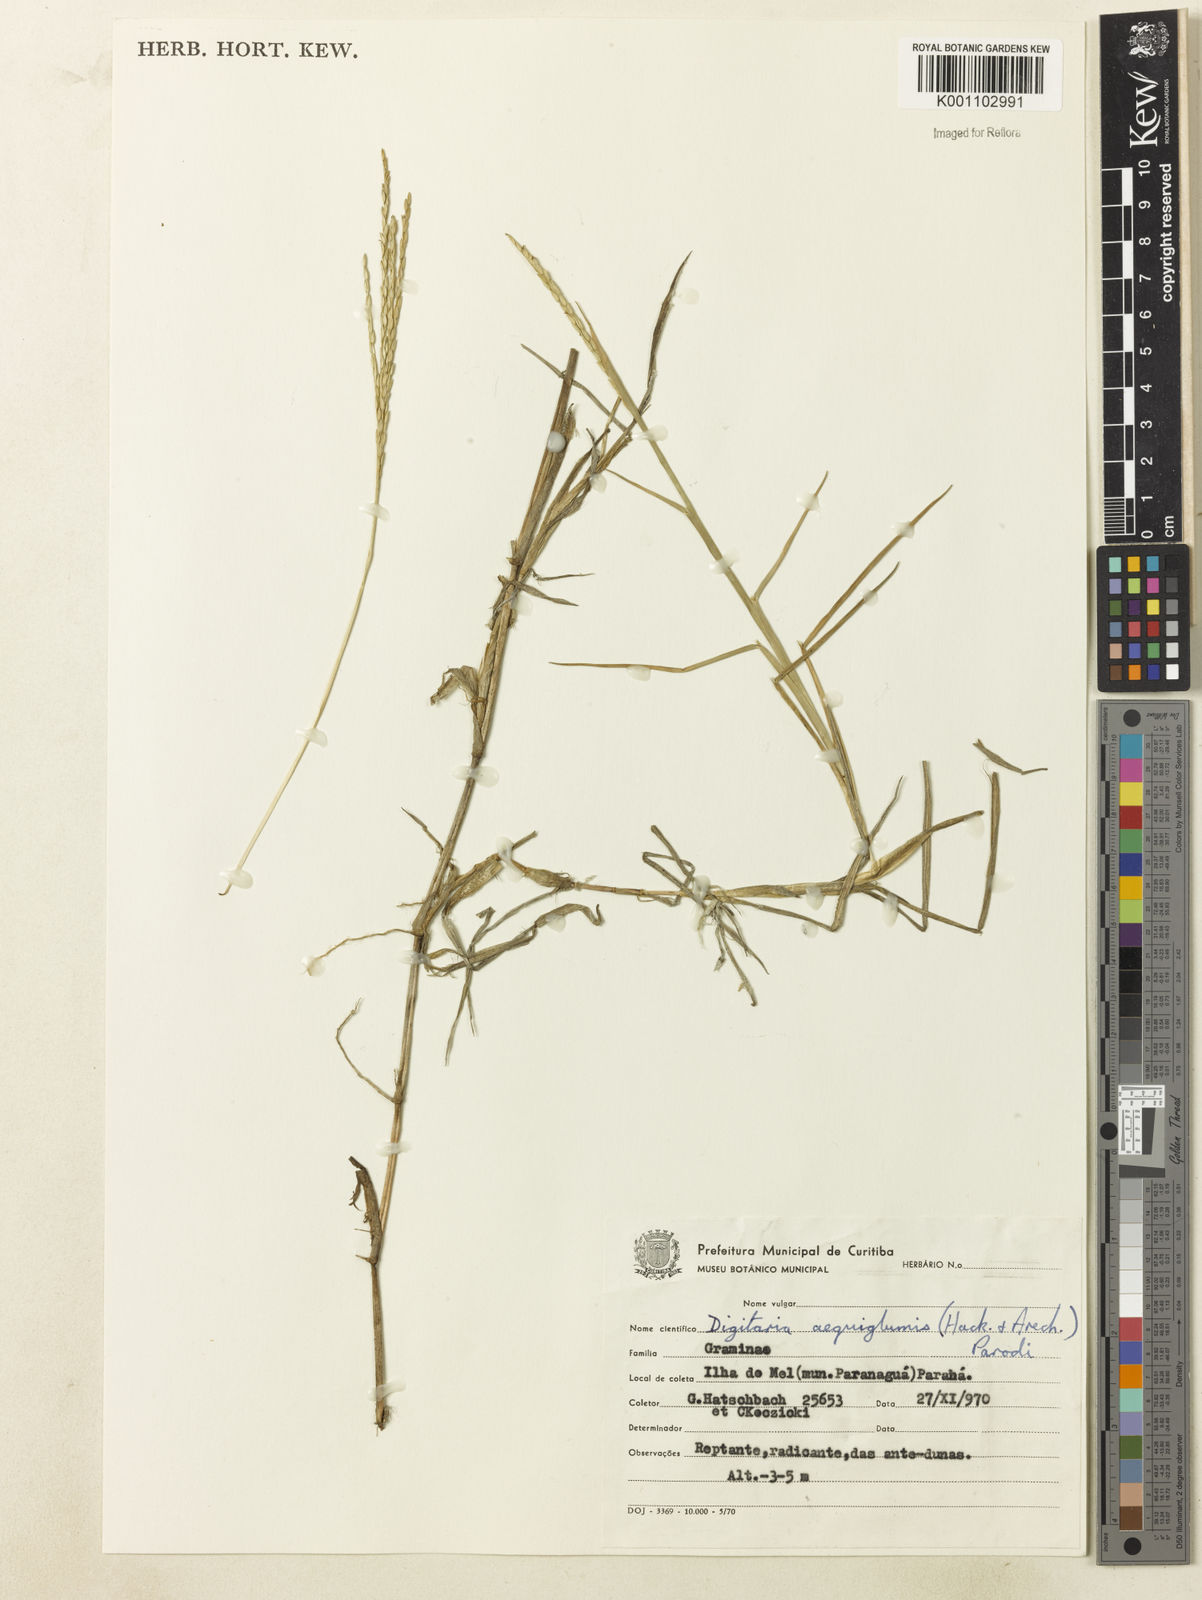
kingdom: Plantae
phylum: Tracheophyta
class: Liliopsida
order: Poales
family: Poaceae
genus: Digitaria
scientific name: Digitaria connivens
